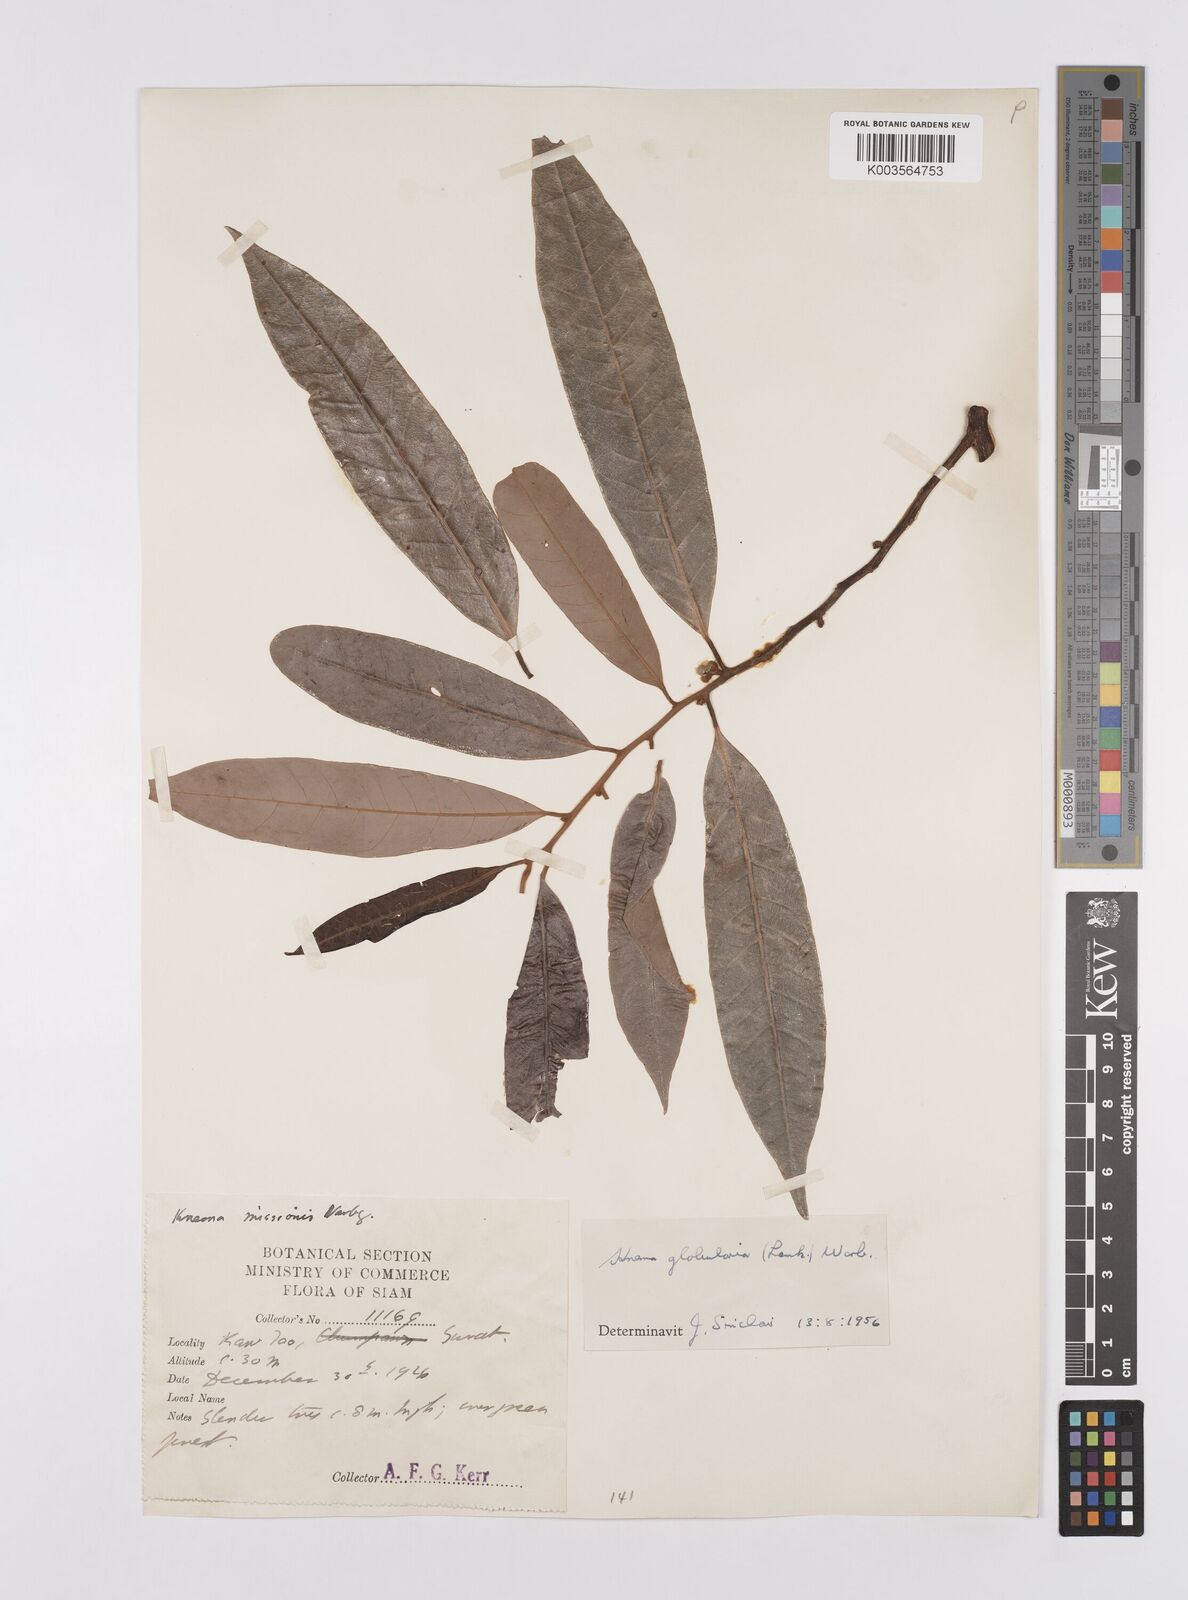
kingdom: Plantae
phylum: Tracheophyta
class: Magnoliopsida
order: Magnoliales
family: Myristicaceae
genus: Knema
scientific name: Knema globularia
